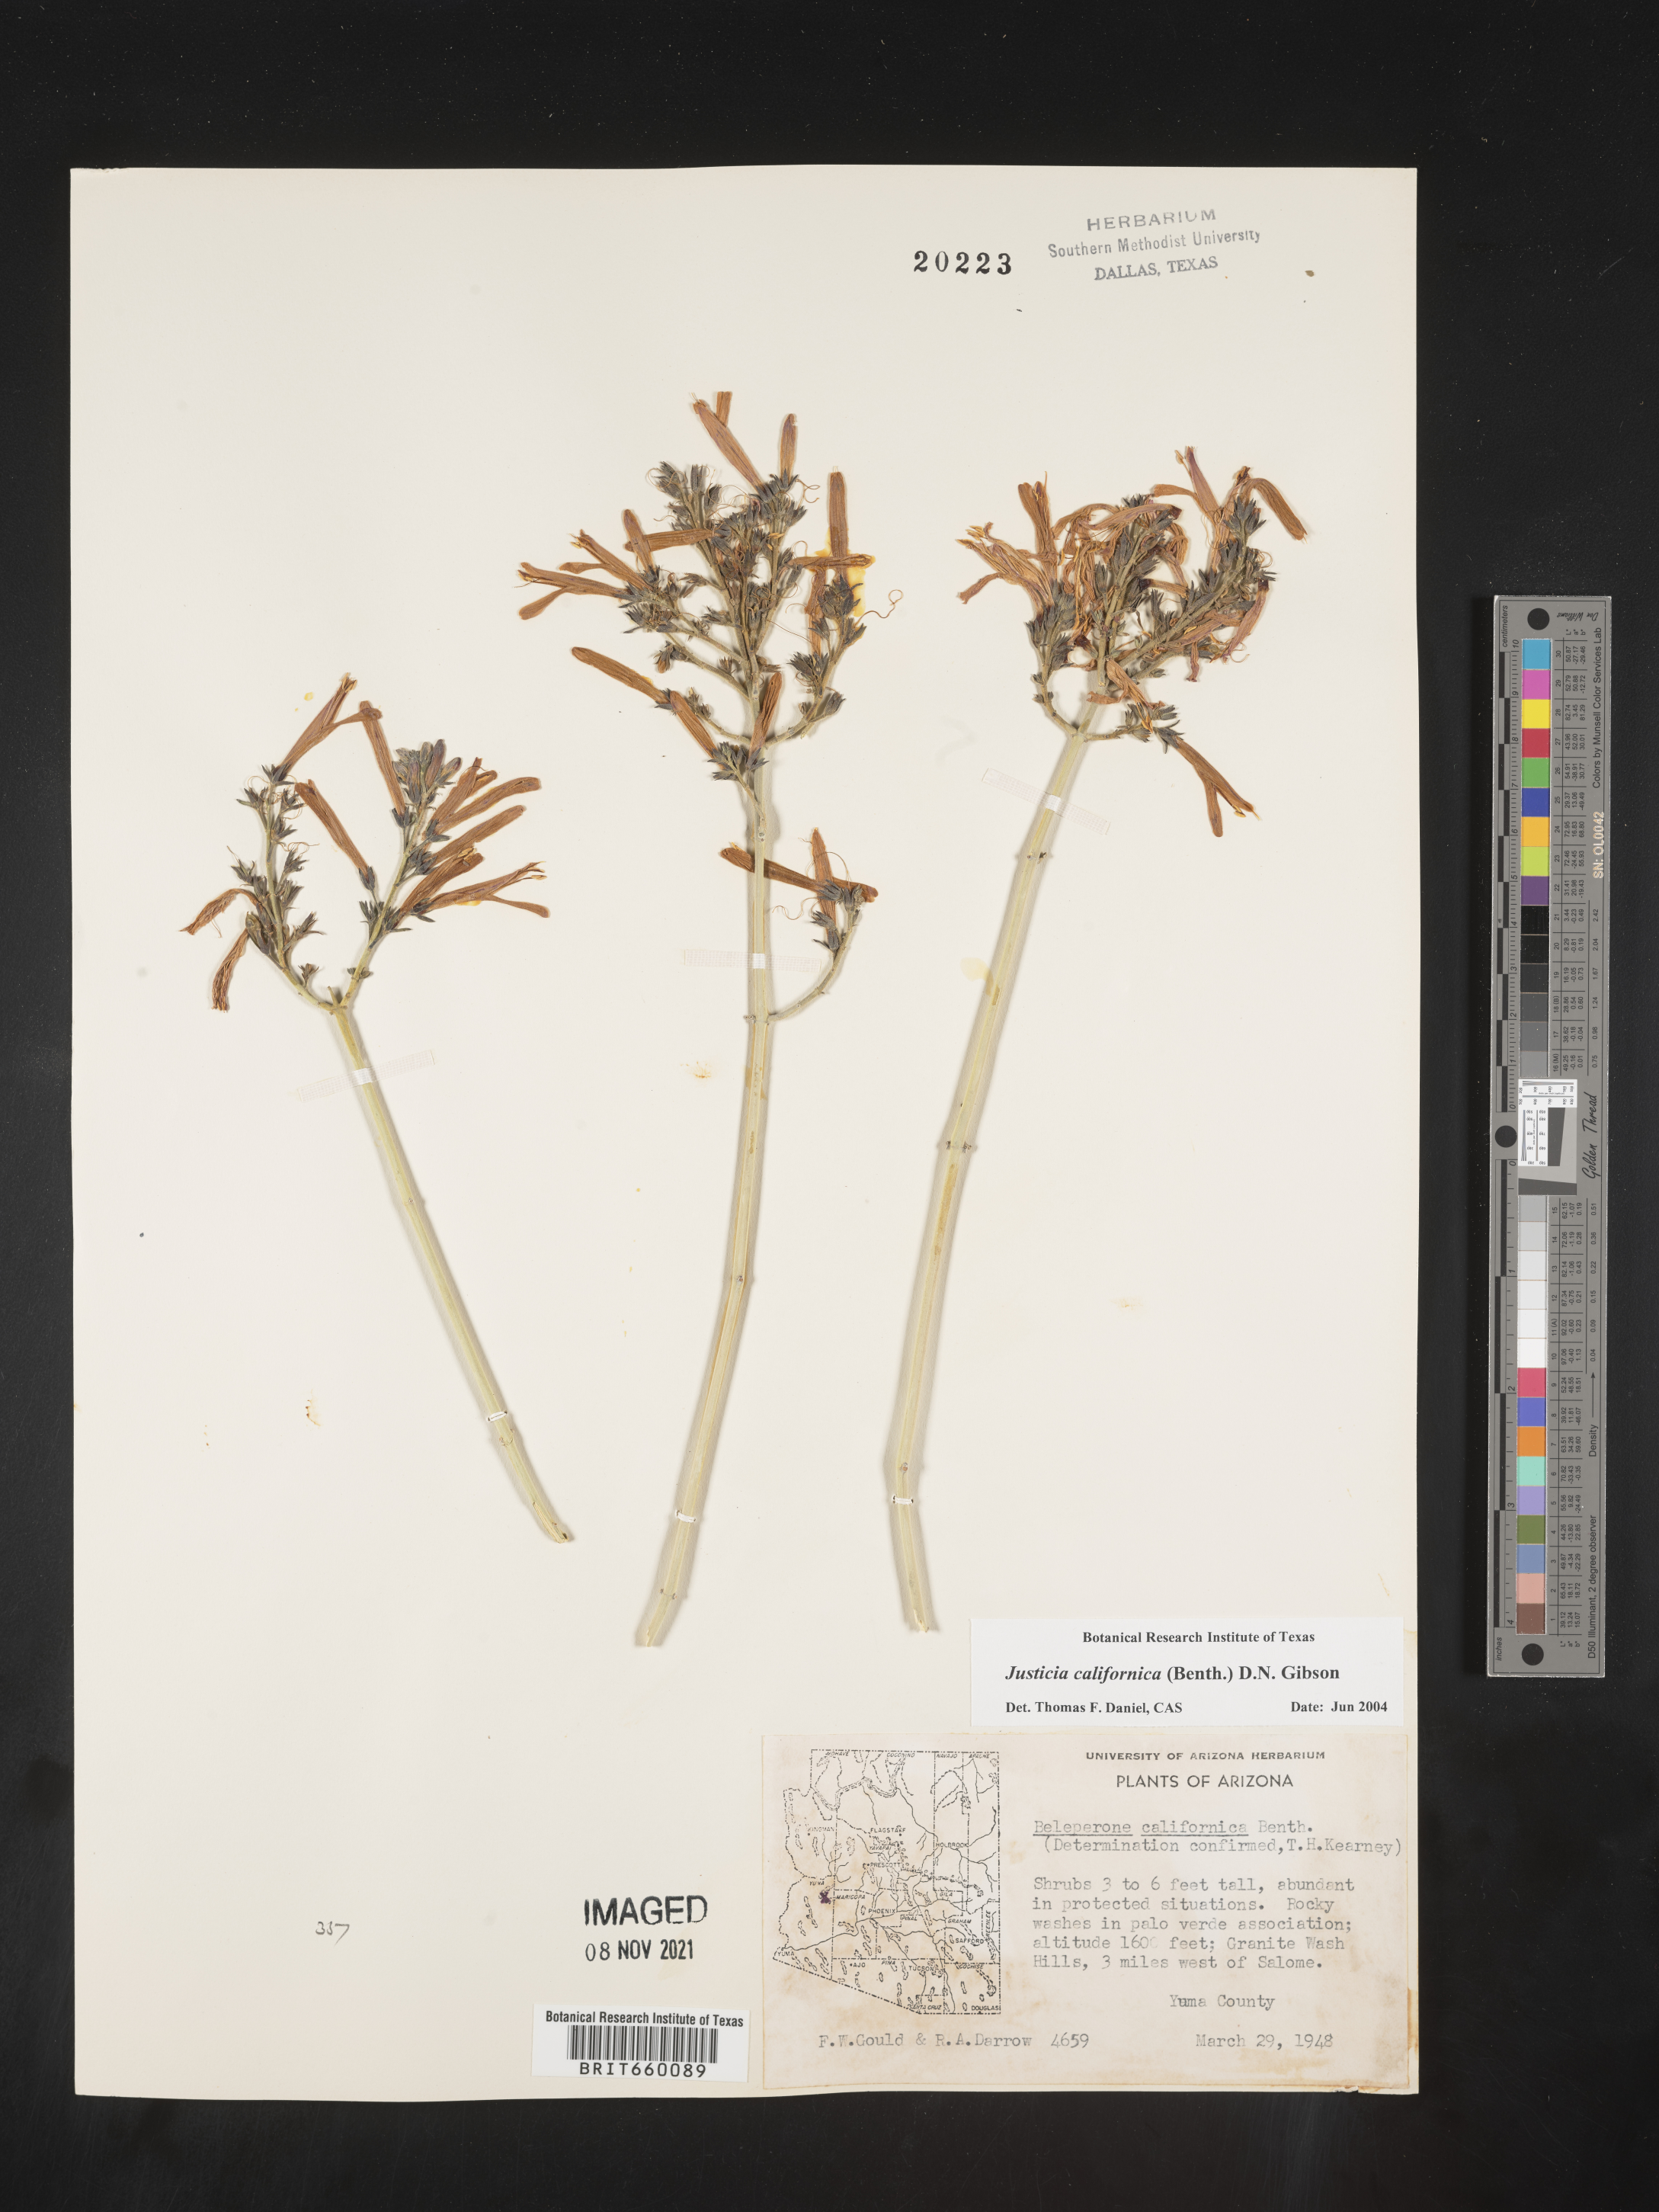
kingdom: Plantae
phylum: Tracheophyta
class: Magnoliopsida
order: Lamiales
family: Acanthaceae
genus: Justicia
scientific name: Justicia californica
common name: Chuparosa-honeysuckle
